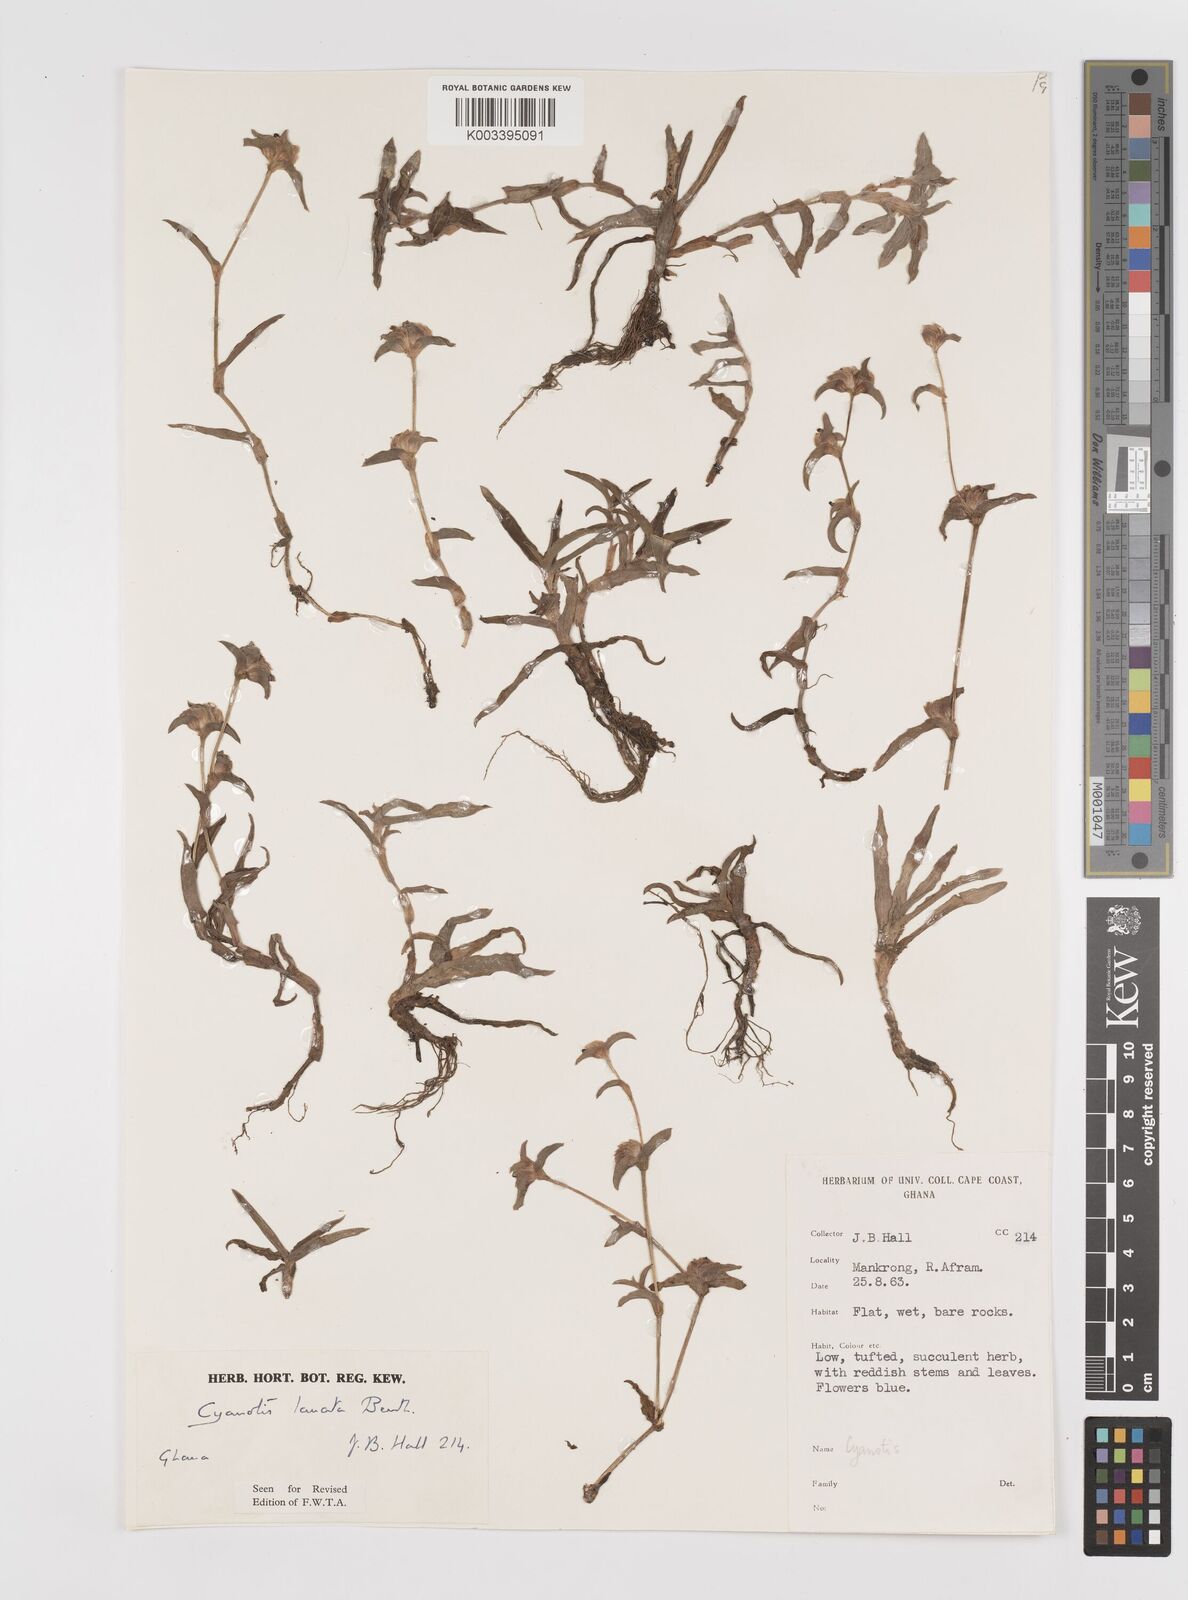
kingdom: Plantae
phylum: Tracheophyta
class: Liliopsida
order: Commelinales
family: Commelinaceae
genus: Cyanotis
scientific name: Cyanotis lanata
